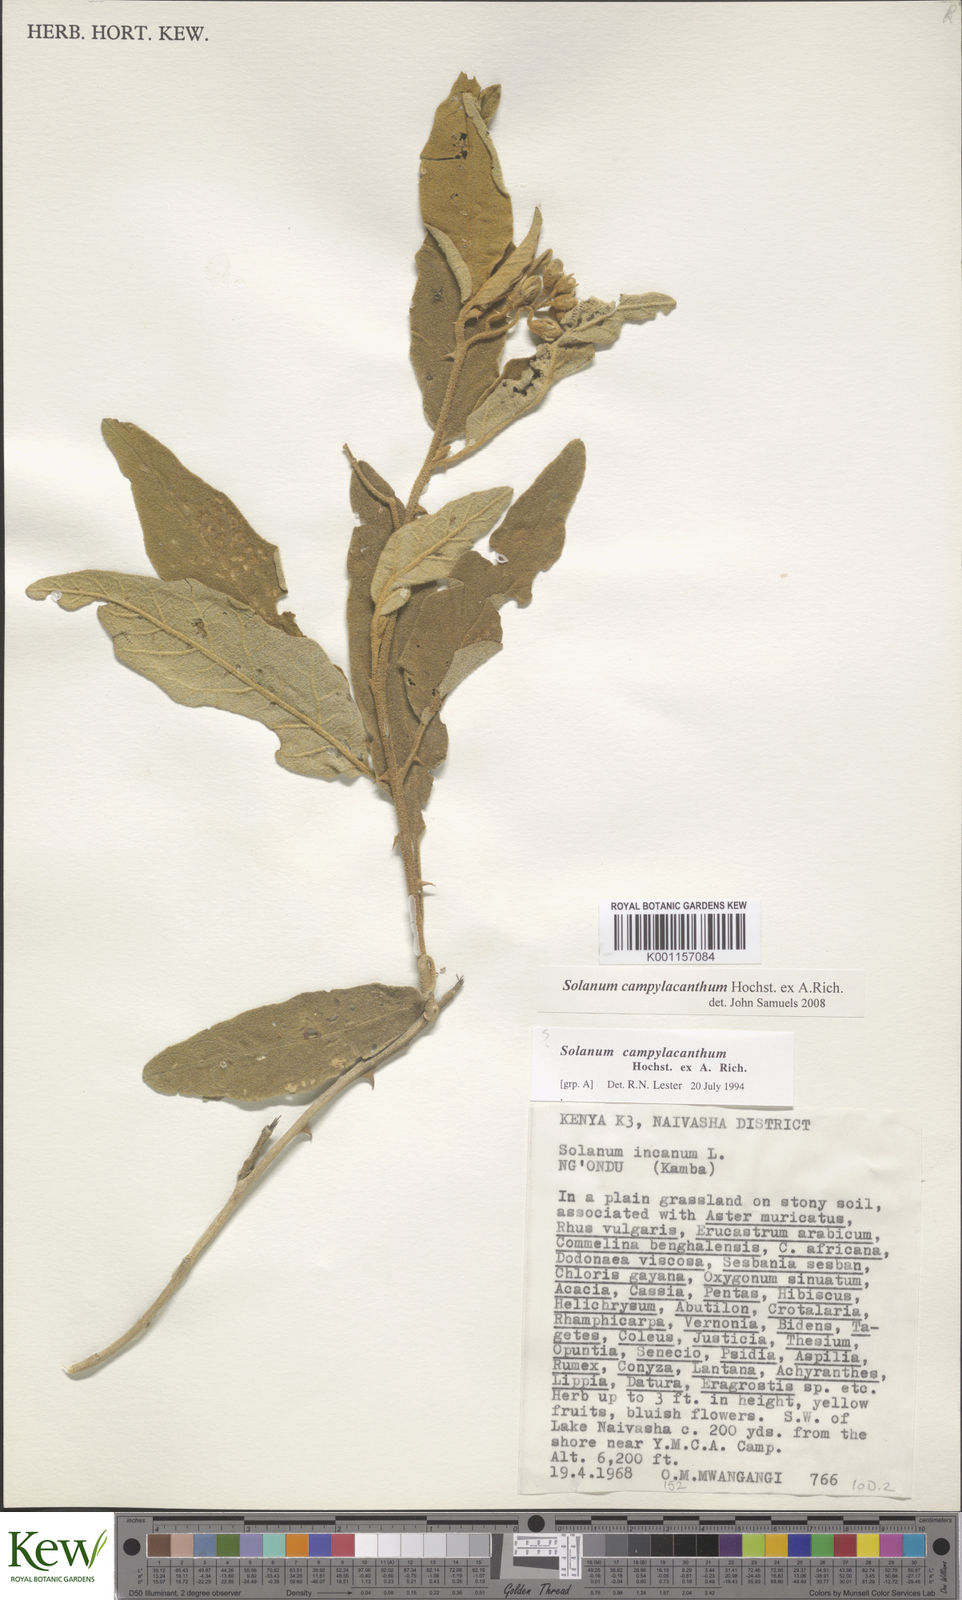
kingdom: Plantae
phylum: Tracheophyta
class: Magnoliopsida
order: Solanales
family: Solanaceae
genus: Solanum
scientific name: Solanum campylacanthum
